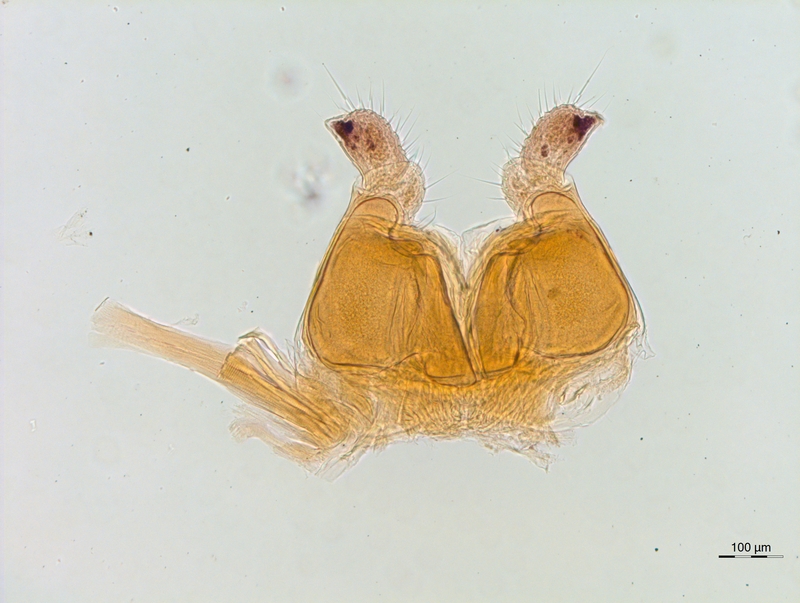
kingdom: Animalia
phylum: Arthropoda
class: Diplopoda
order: Chordeumatida
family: Chordeumatidae
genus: Orthochordeumella
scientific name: Orthochordeumella pallida
